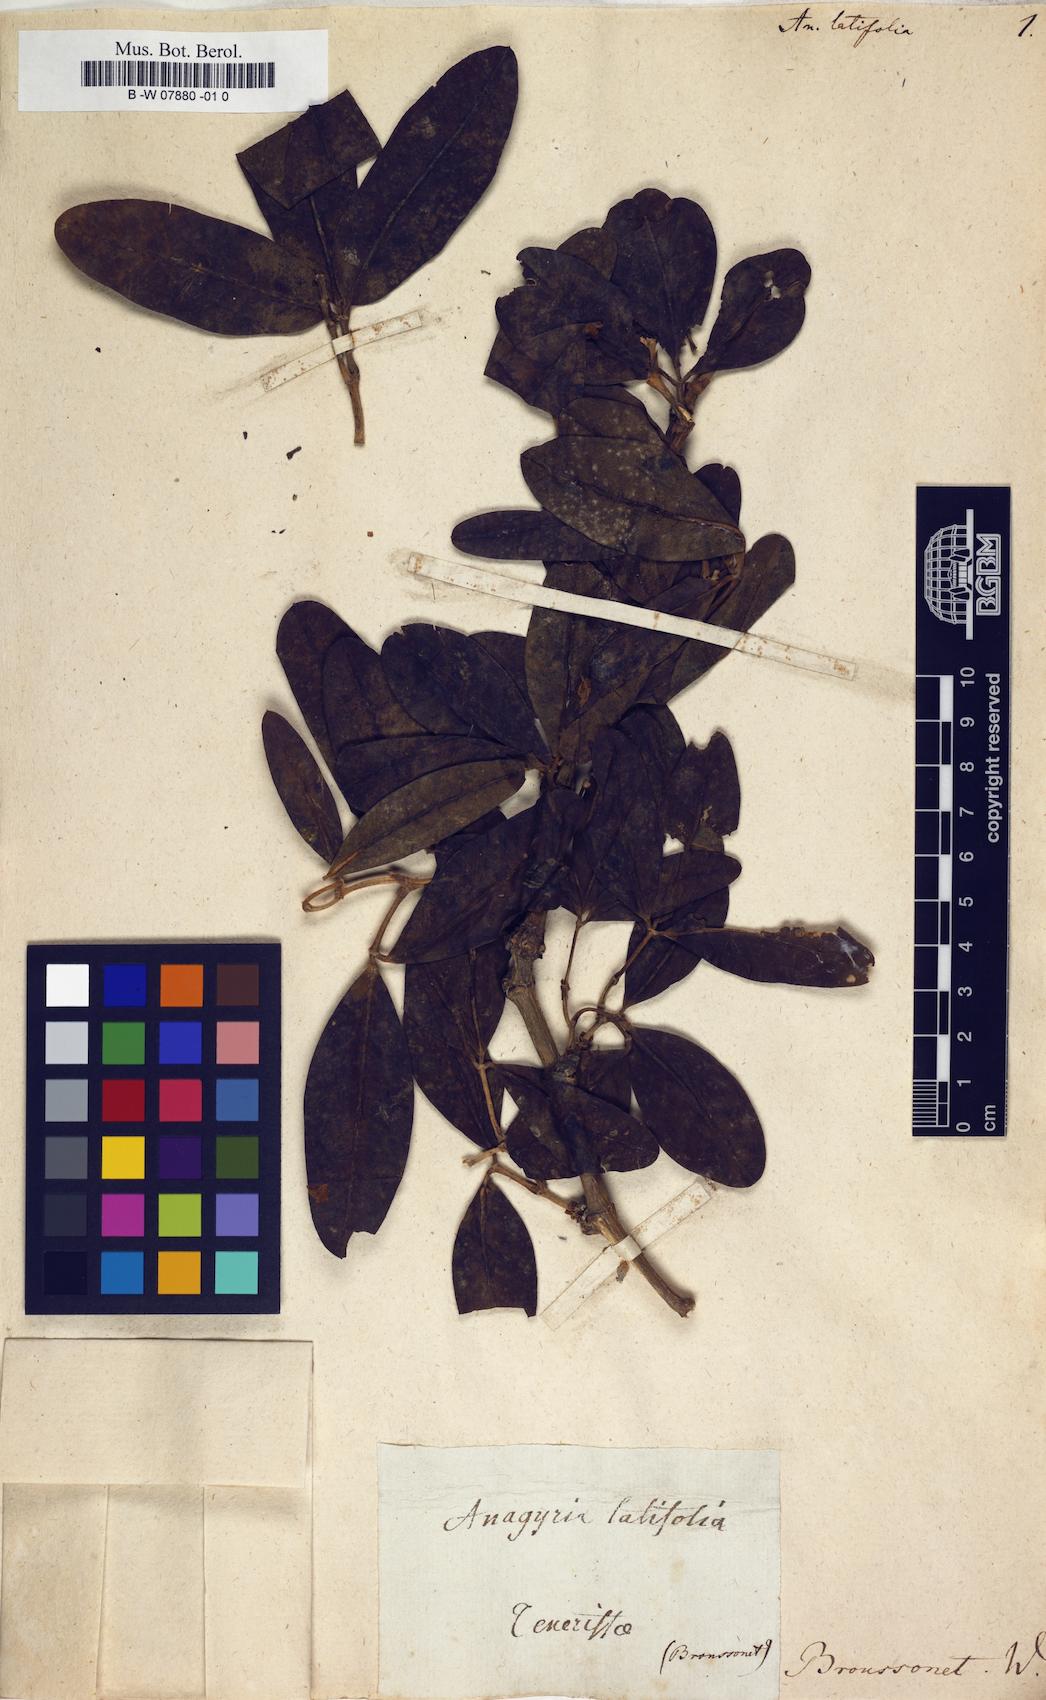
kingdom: Plantae
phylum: Tracheophyta
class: Magnoliopsida
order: Fabales
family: Fabaceae
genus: Anagyris
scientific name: Anagyris latifolia
